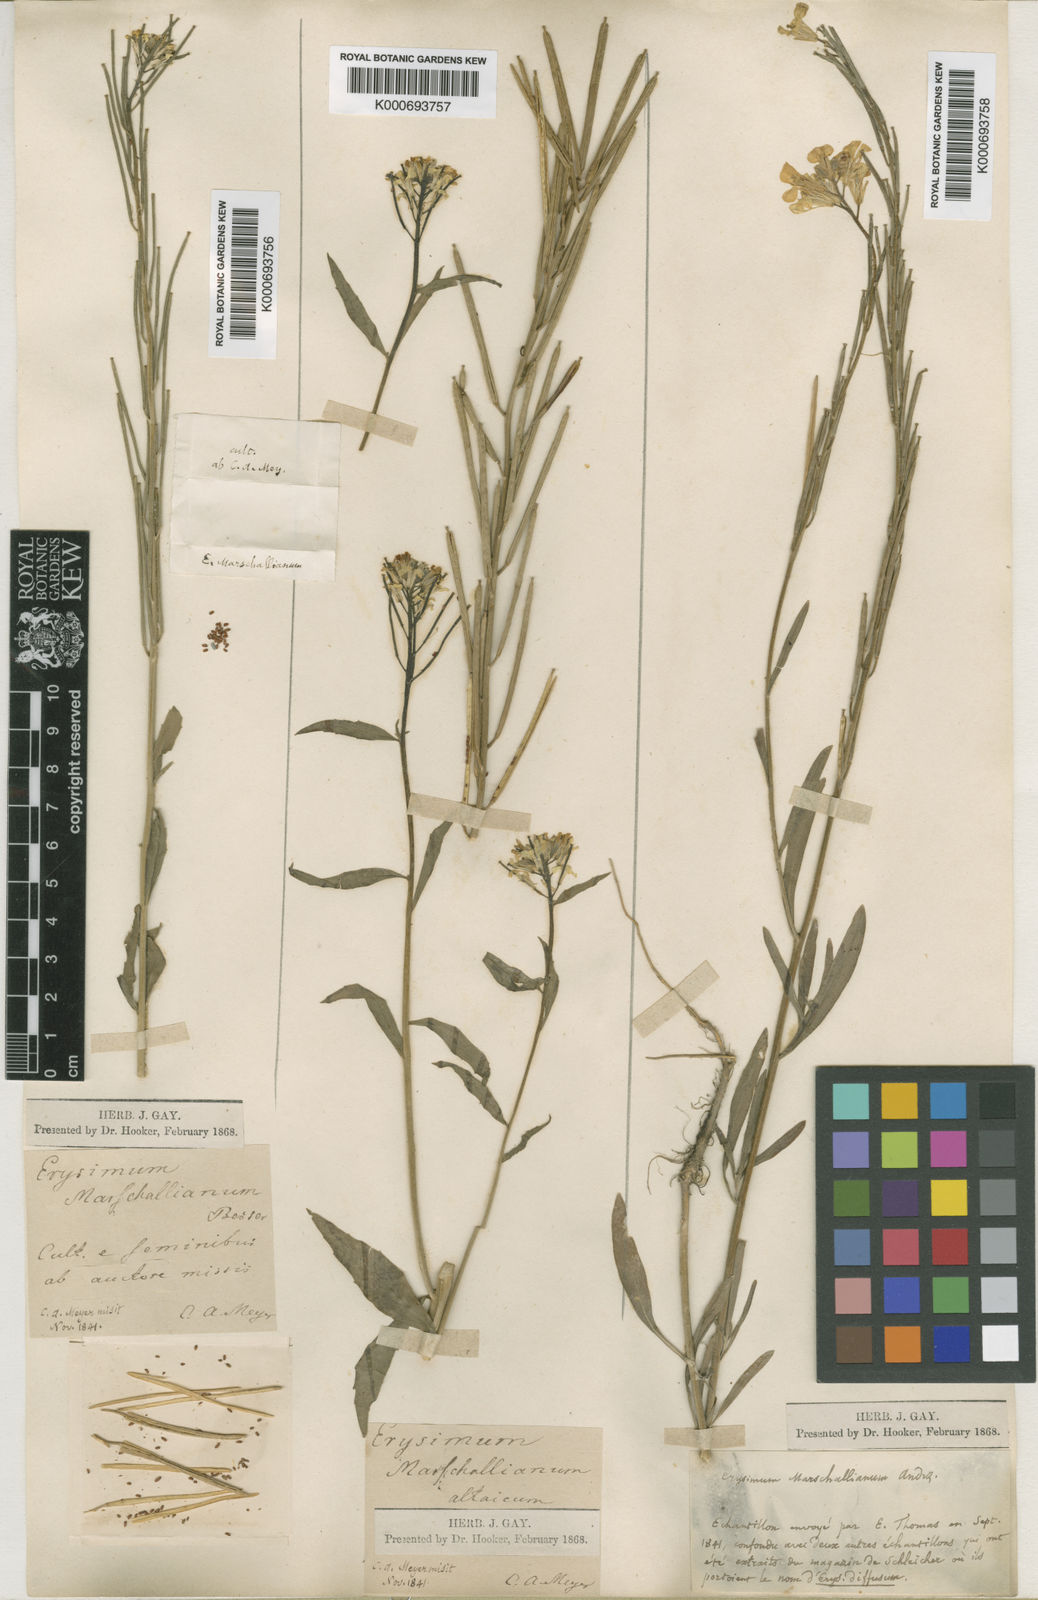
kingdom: Plantae
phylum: Tracheophyta
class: Magnoliopsida
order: Brassicales
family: Brassicaceae
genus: Erysimum
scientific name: Erysimum hieraciifolium
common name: European wallflower
